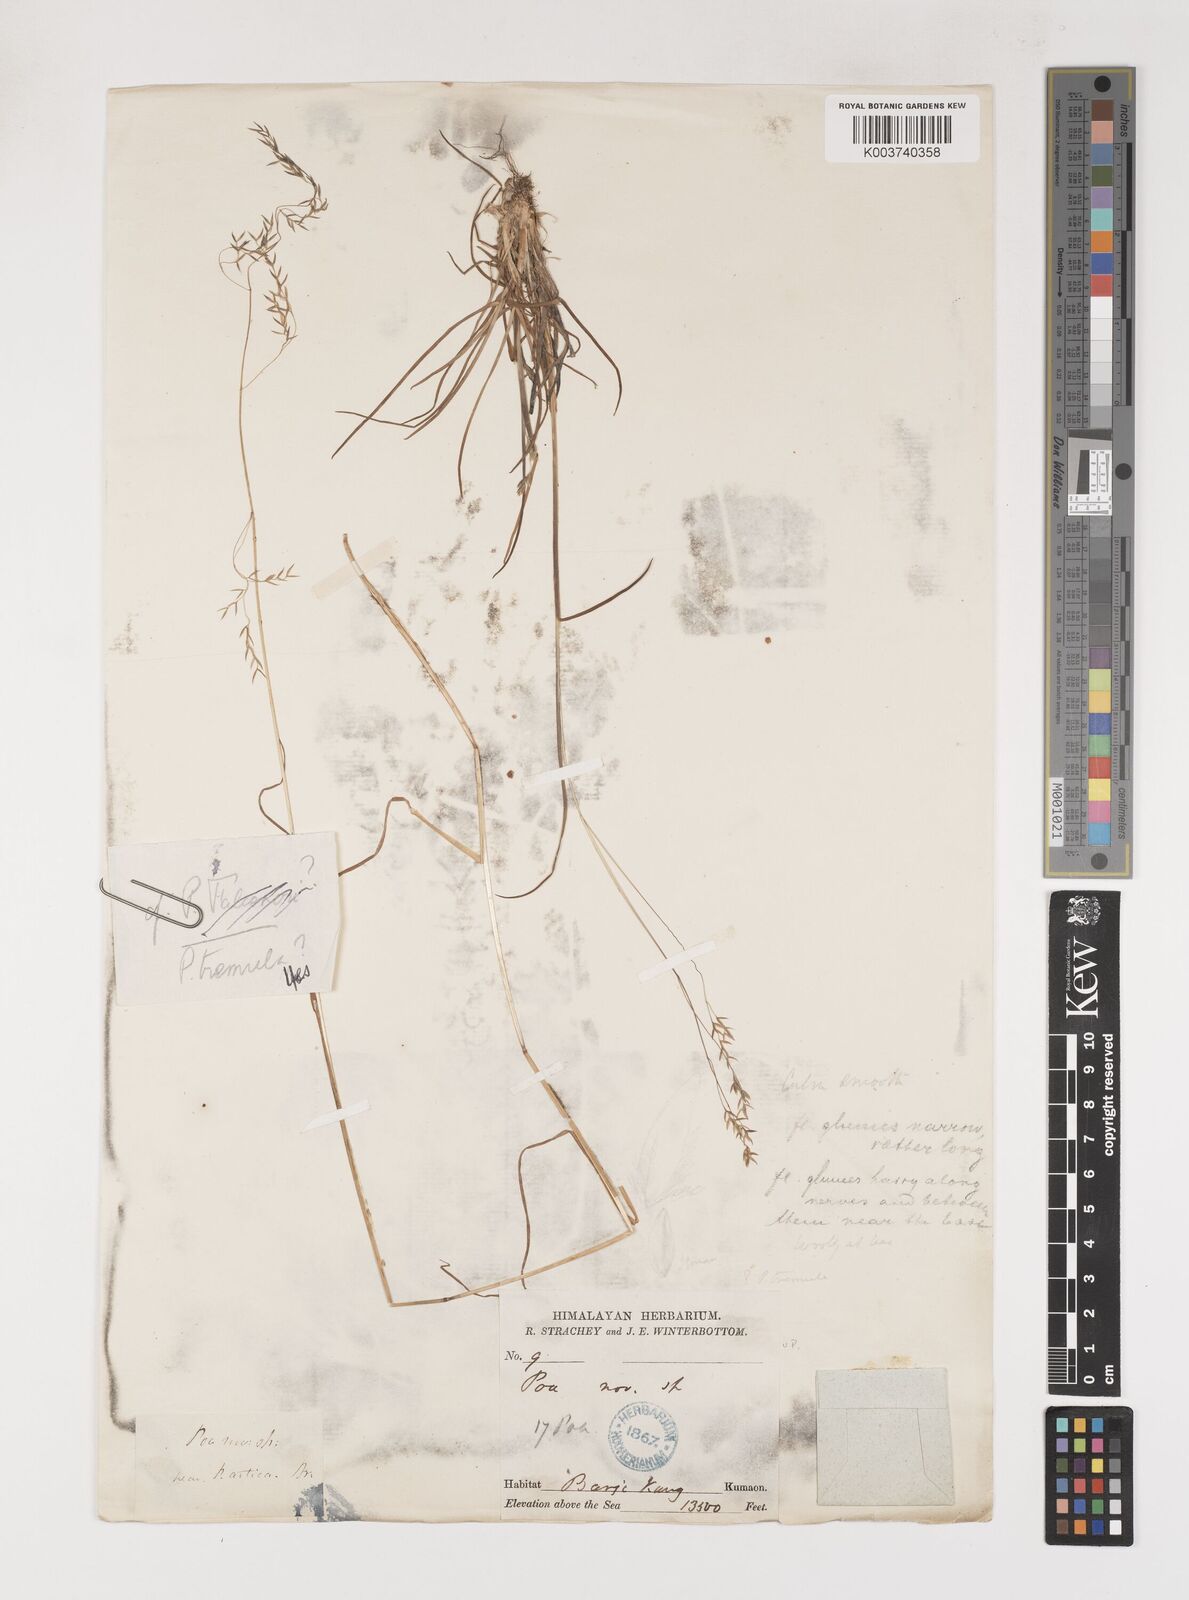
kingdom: Plantae
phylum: Tracheophyta
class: Liliopsida
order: Poales
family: Poaceae
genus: Poa
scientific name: Poa stapfiana
